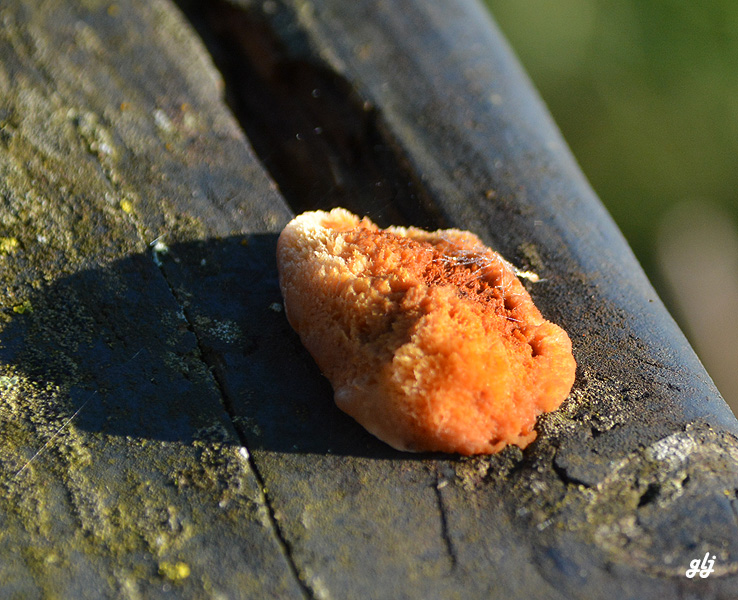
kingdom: Fungi
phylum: Basidiomycota
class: Agaricomycetes
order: Gloeophyllales
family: Gloeophyllaceae
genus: Gloeophyllum
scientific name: Gloeophyllum sepiarium
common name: fyrre-korkhat
